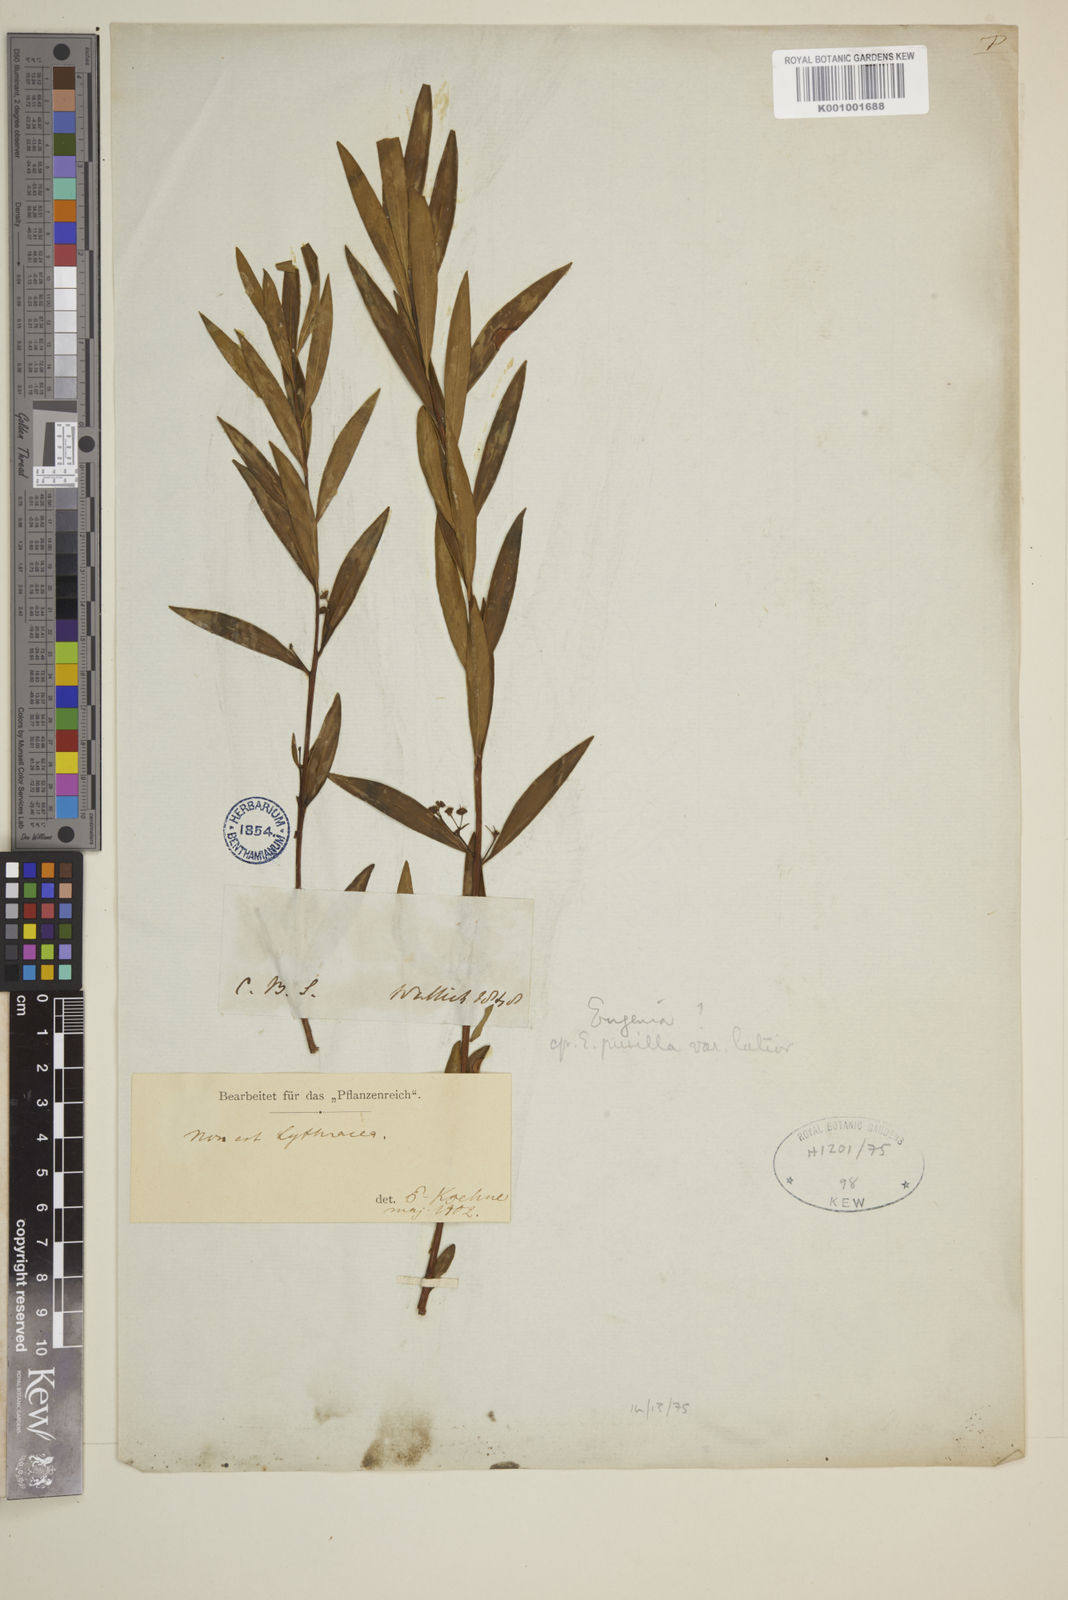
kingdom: Plantae
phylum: Tracheophyta
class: Magnoliopsida
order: Myrtales
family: Myrtaceae
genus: Eugenia
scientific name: Eugenia pusilla
